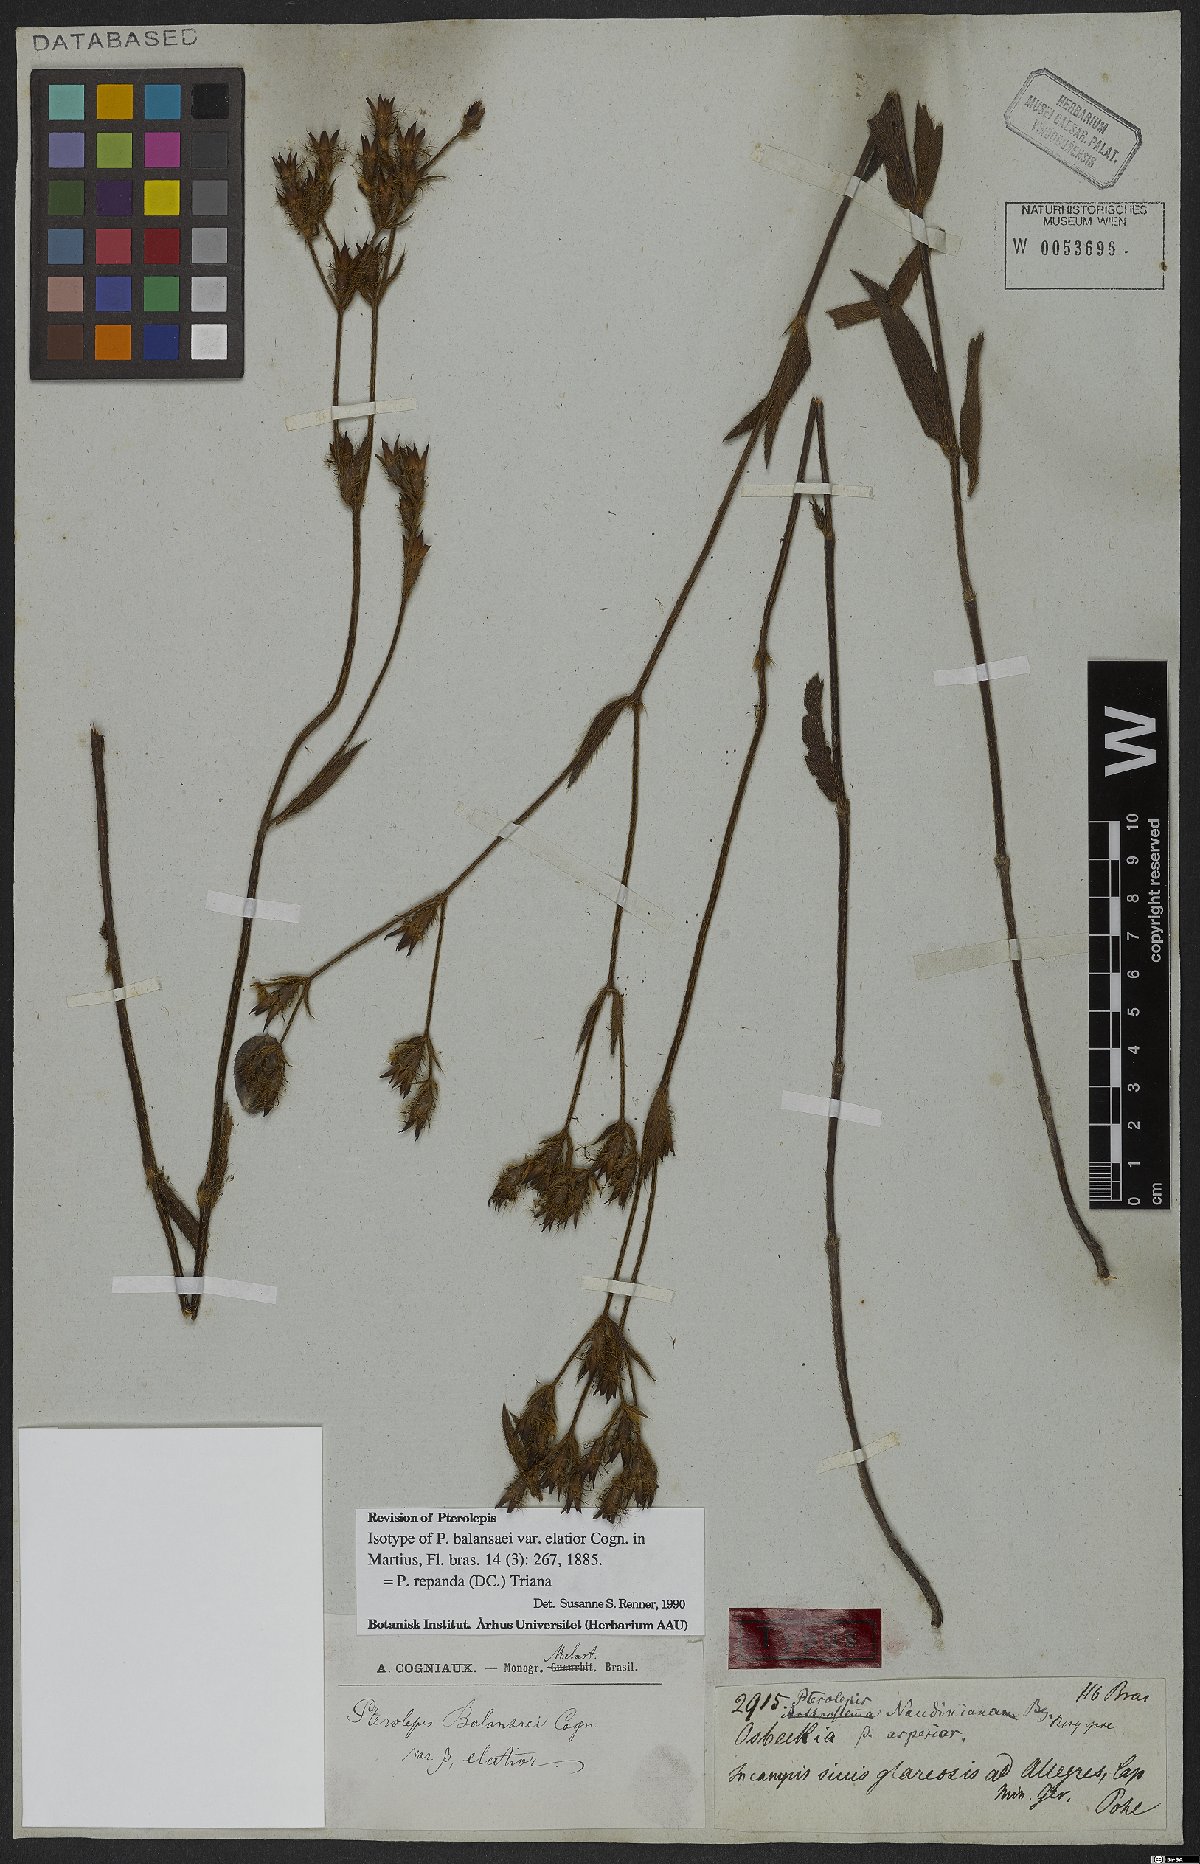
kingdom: Plantae
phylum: Tracheophyta
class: Magnoliopsida
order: Myrtales
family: Melastomataceae
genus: Pterolepis
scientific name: Pterolepis repanda
